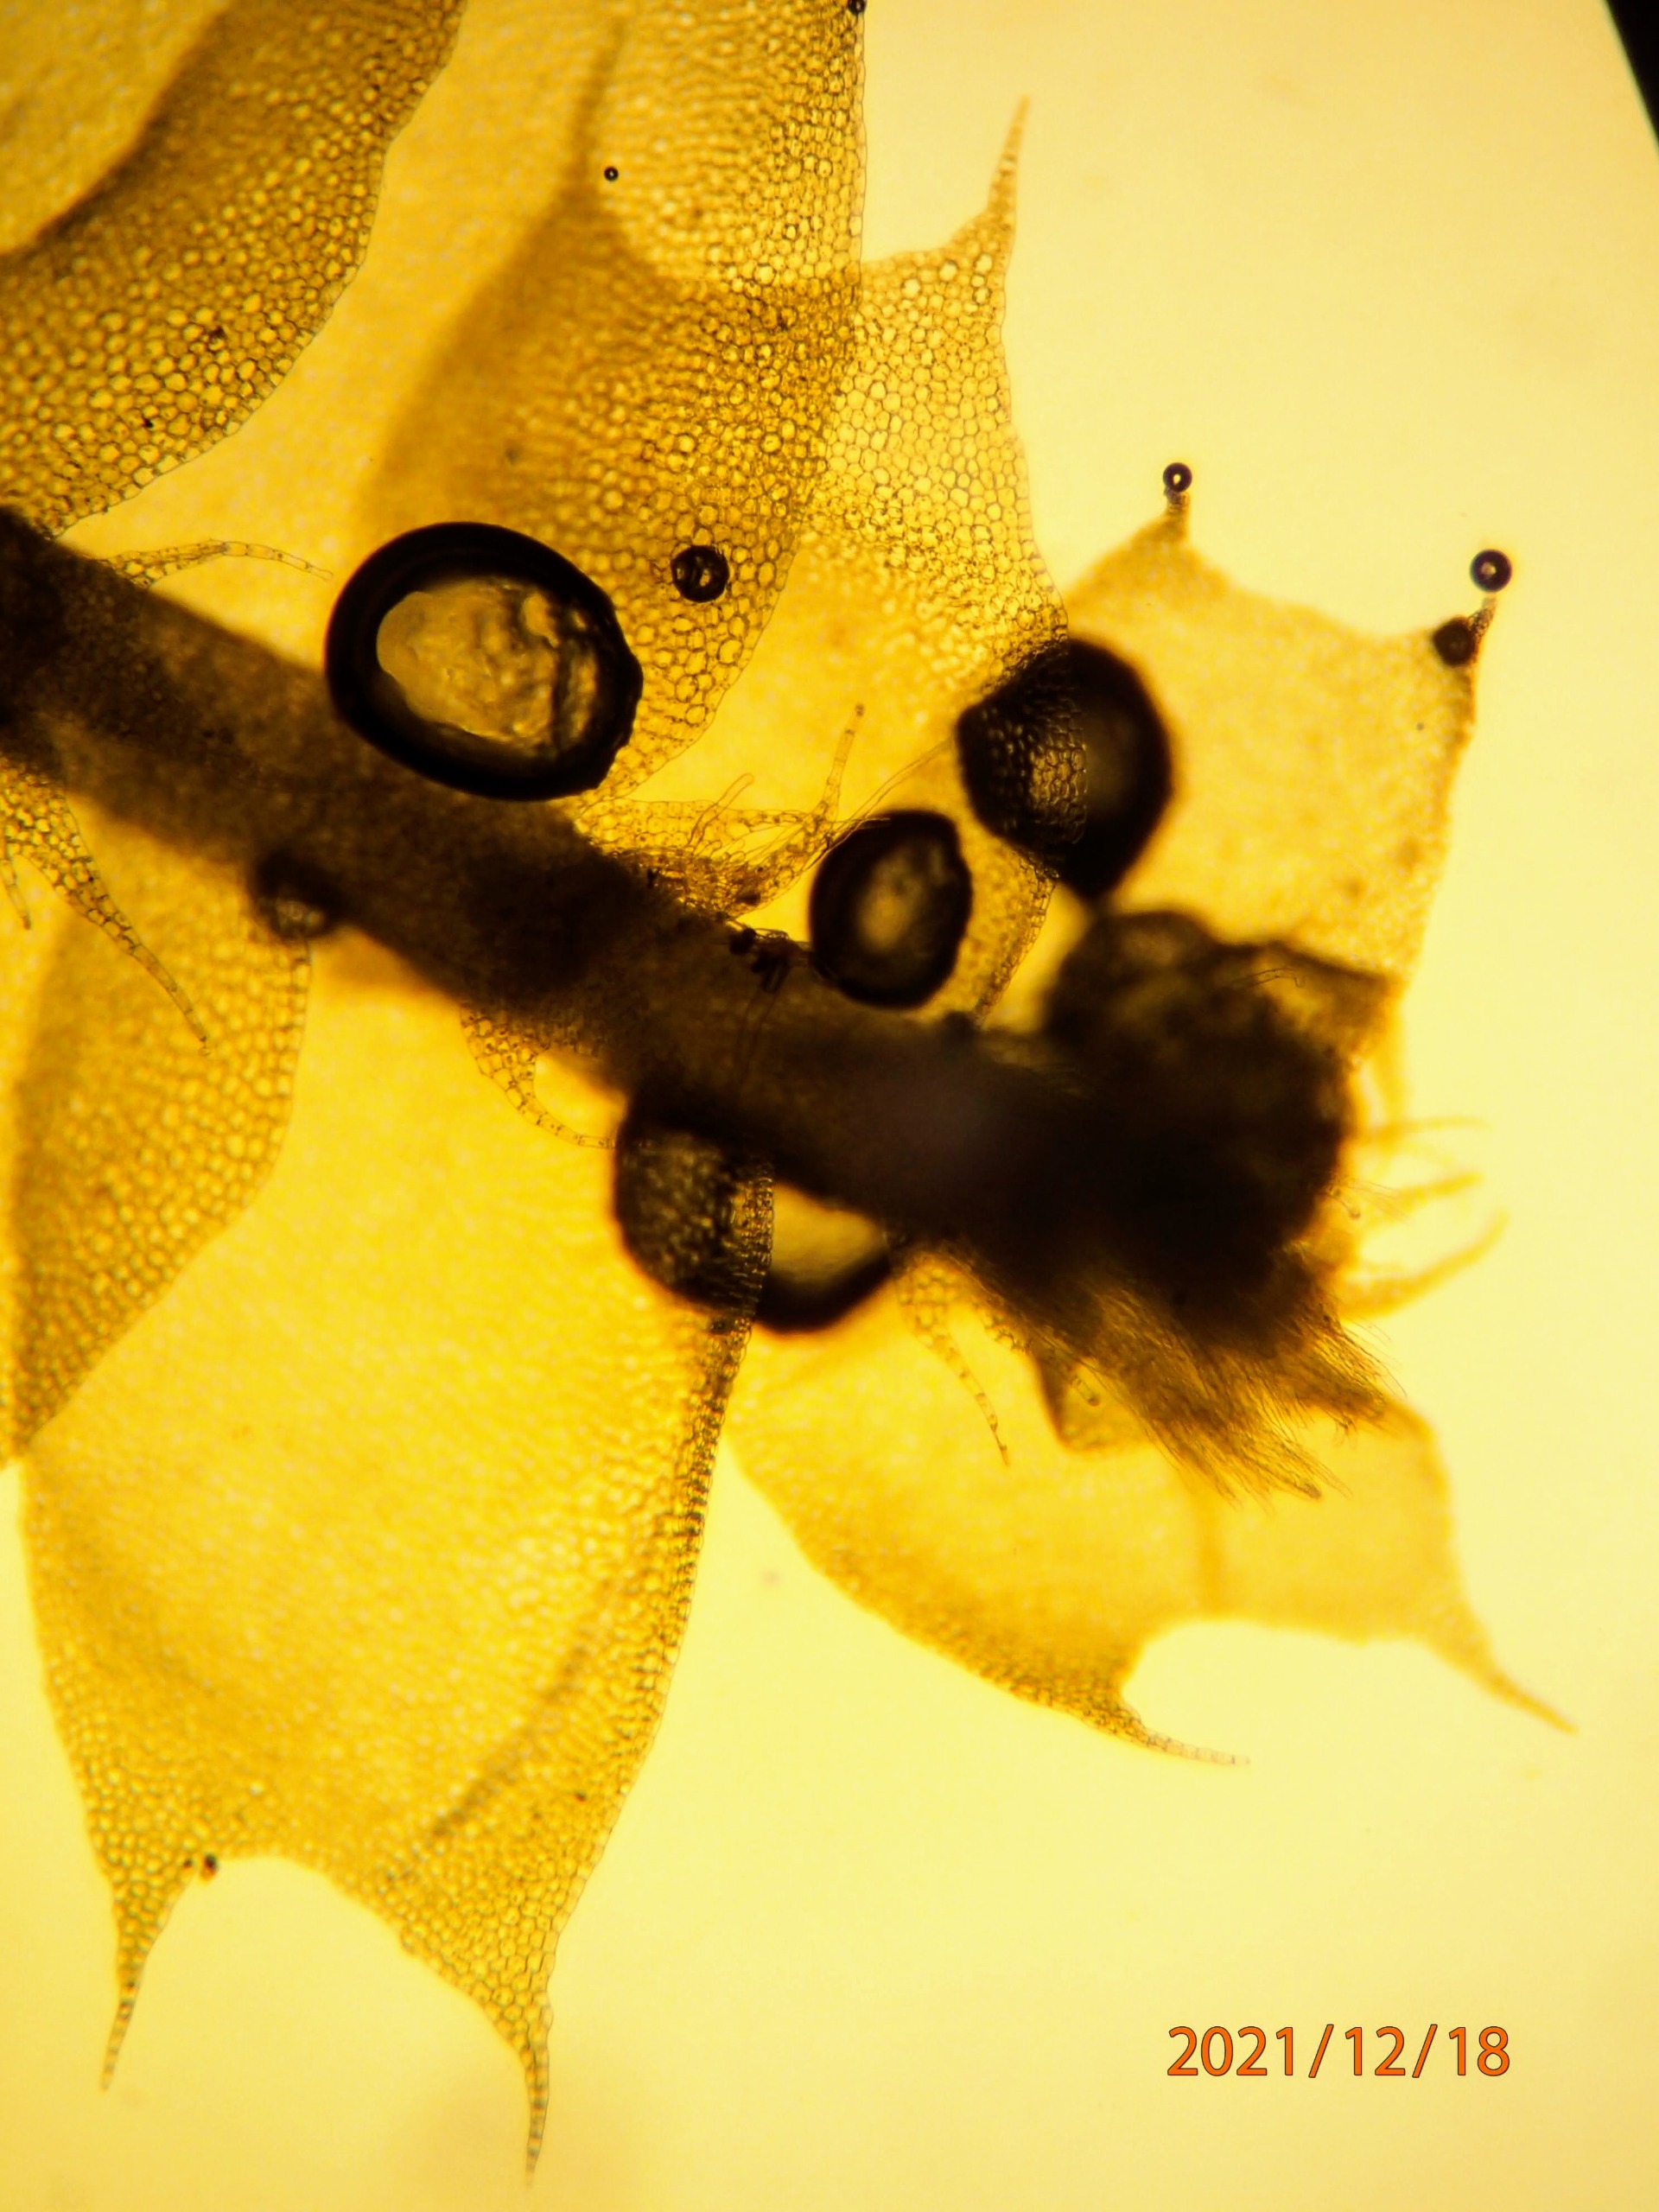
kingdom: Plantae
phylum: Marchantiophyta
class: Jungermanniopsida
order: Jungermanniales
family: Lophocoleaceae
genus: Lophocolea
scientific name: Lophocolea bidentata
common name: Sylspidset kamsvøb
